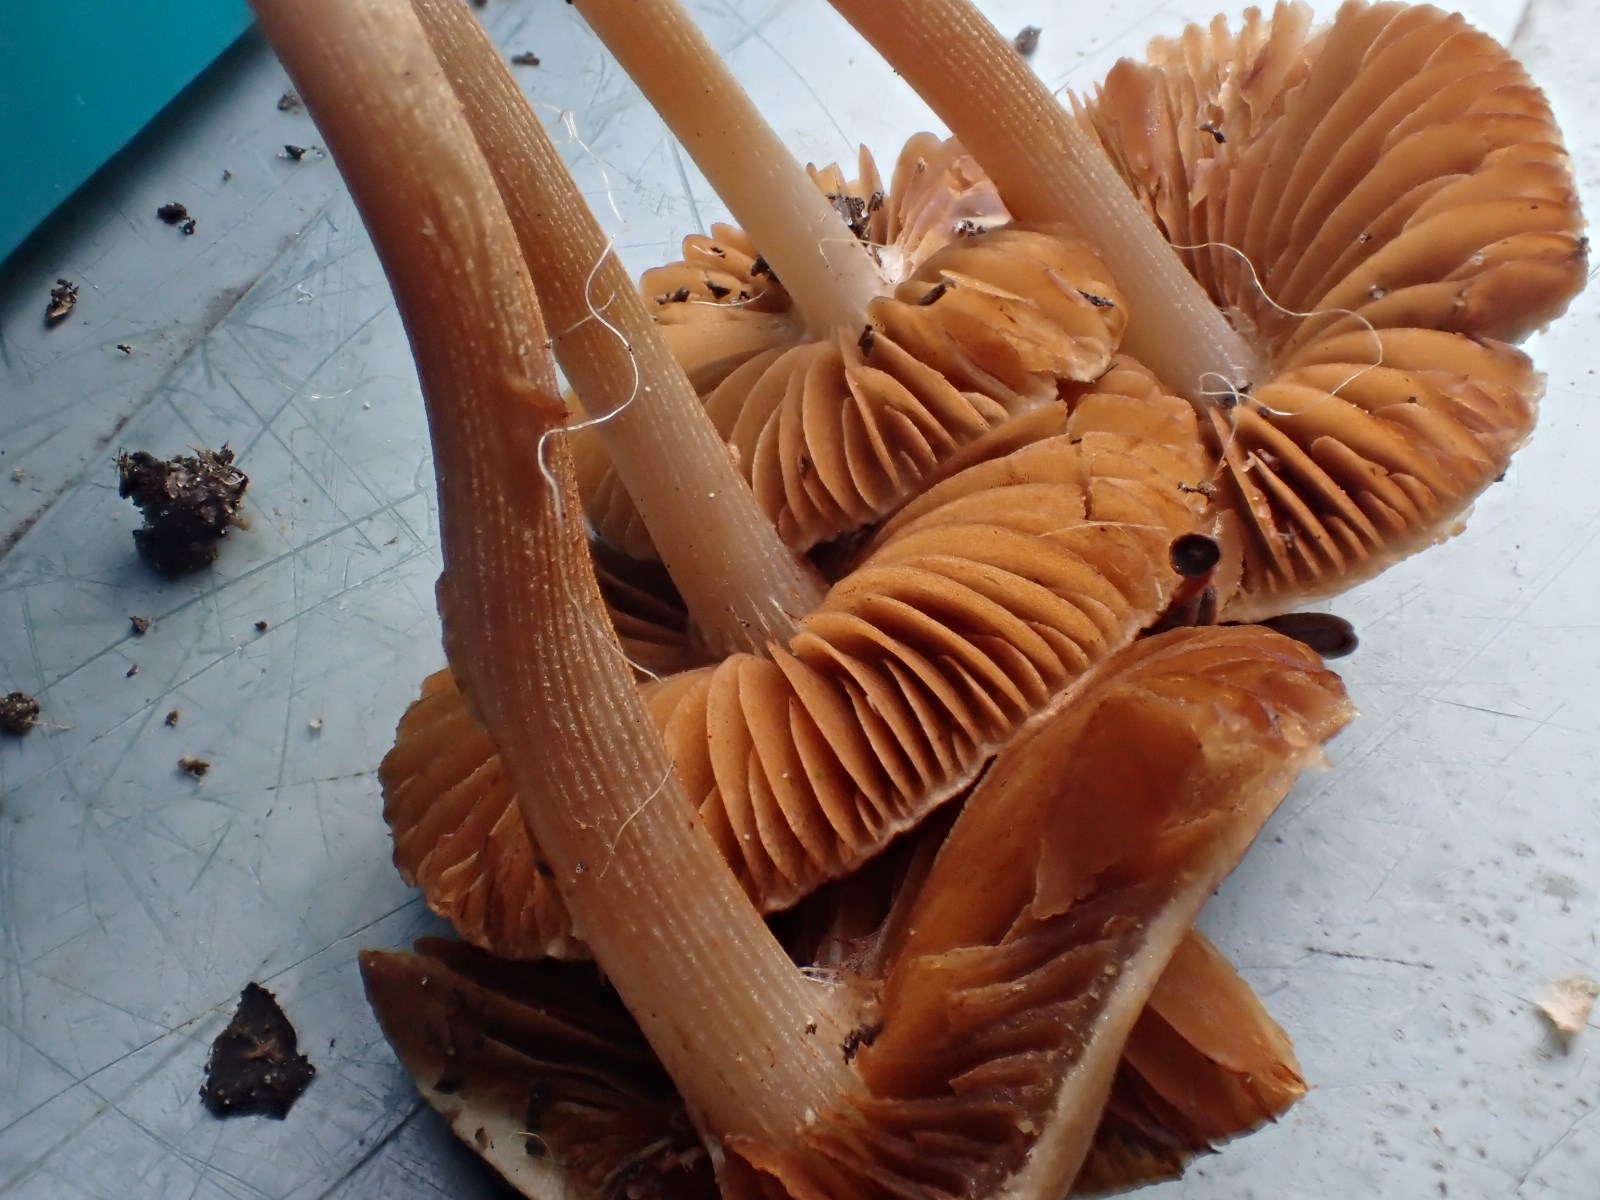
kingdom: Fungi
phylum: Basidiomycota
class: Agaricomycetes
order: Agaricales
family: Bolbitiaceae
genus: Conocybe
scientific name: Conocybe
